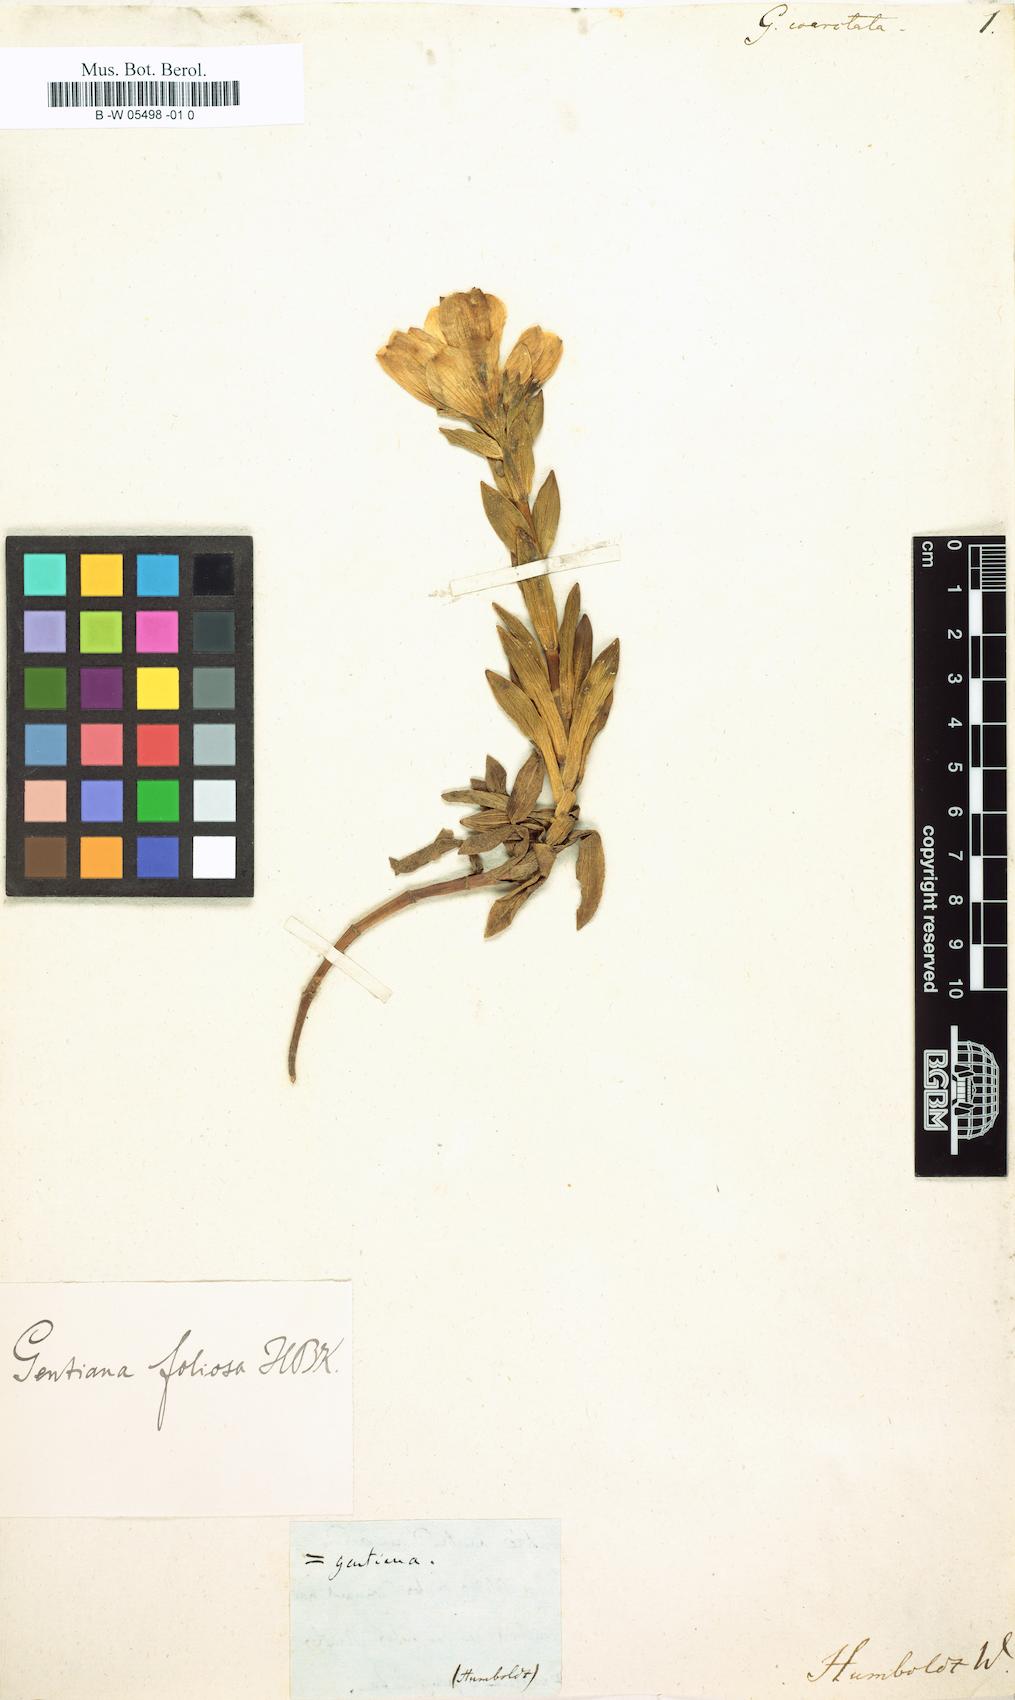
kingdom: Plantae
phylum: Tracheophyta
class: Magnoliopsida
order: Gentianales
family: Gentianaceae
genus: Gentianella
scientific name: Gentianella foliosa
